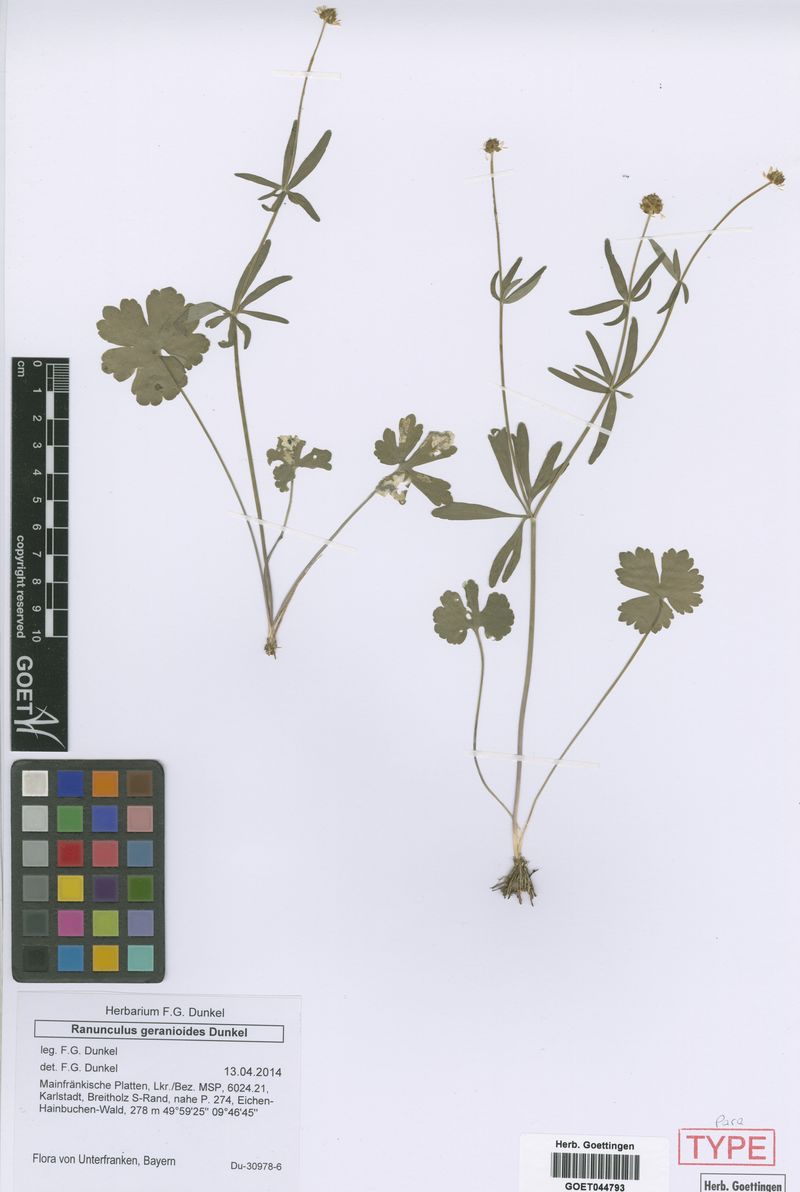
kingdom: Plantae
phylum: Tracheophyta
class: Magnoliopsida
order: Ranunculales
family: Ranunculaceae
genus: Ranunculus
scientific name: Ranunculus geraniiformis
